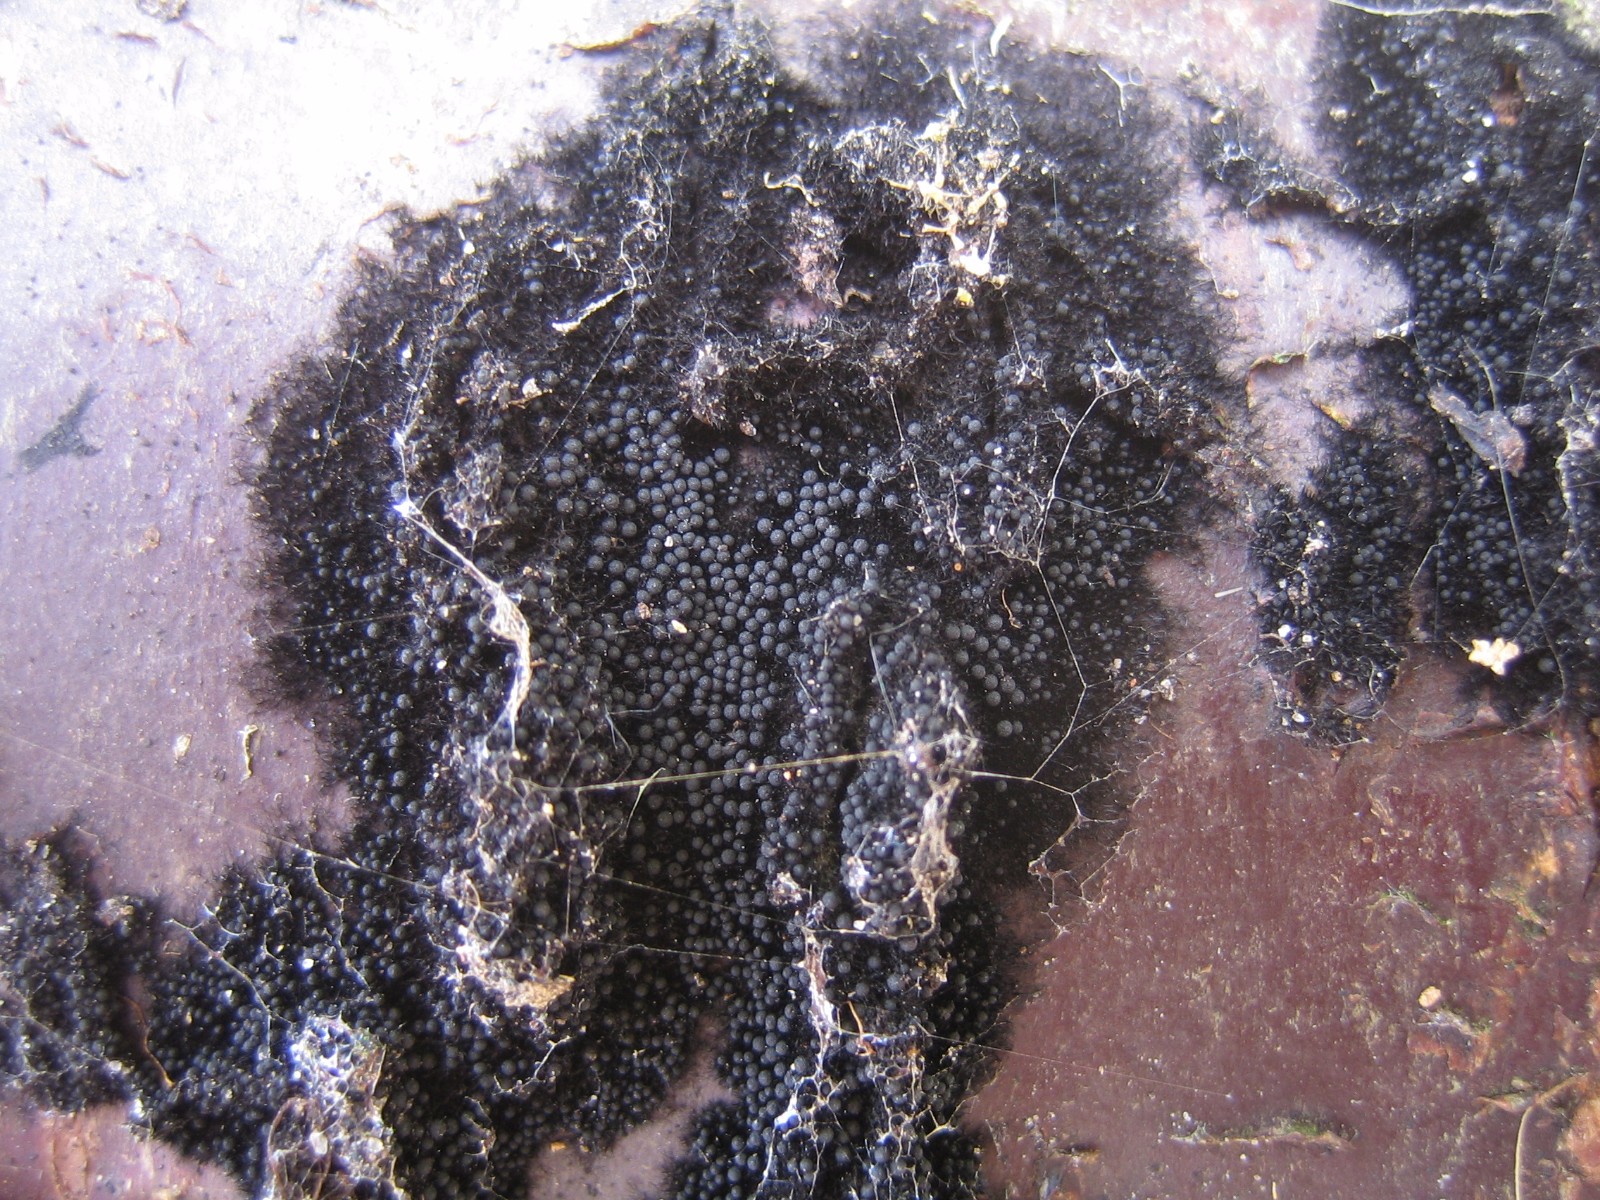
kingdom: Fungi
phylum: Ascomycota
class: Sordariomycetes
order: Coronophorales
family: Chaetosphaerellaceae
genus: Chaetosphaerella
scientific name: Chaetosphaerella phaeostroma
